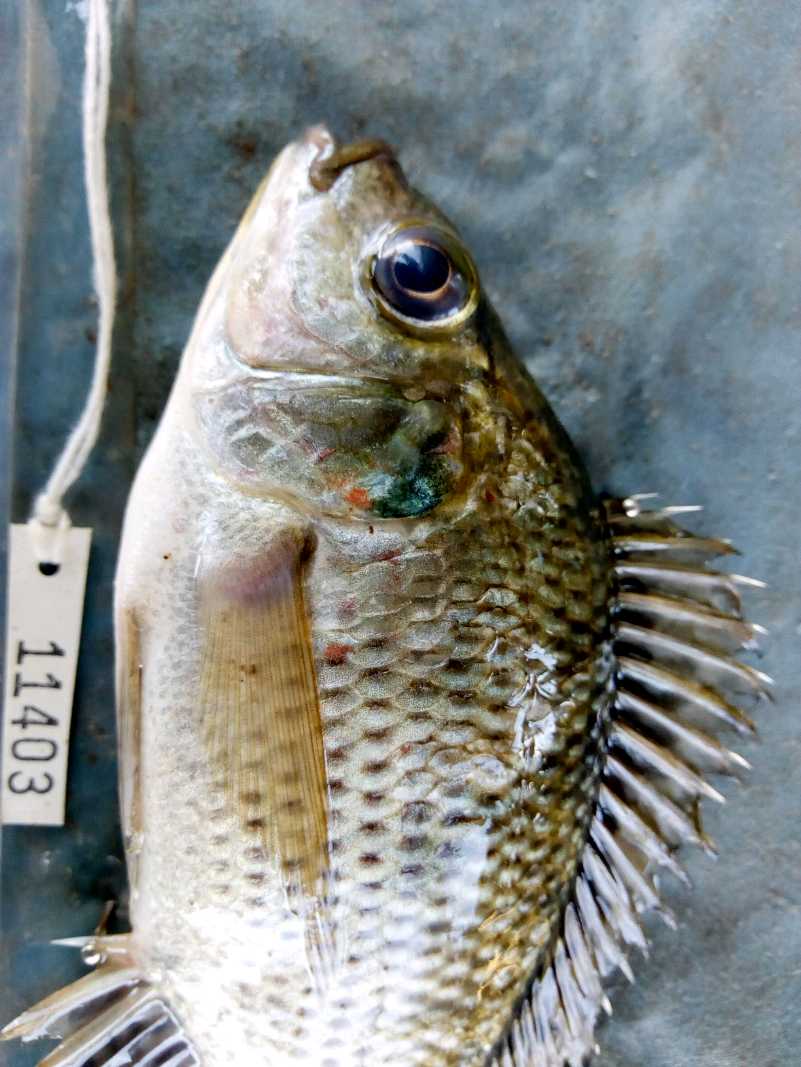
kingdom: Animalia
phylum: Chordata
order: Perciformes
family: Cichlidae
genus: Oreochromis
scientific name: Oreochromis niloticus
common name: Nile tilapia
